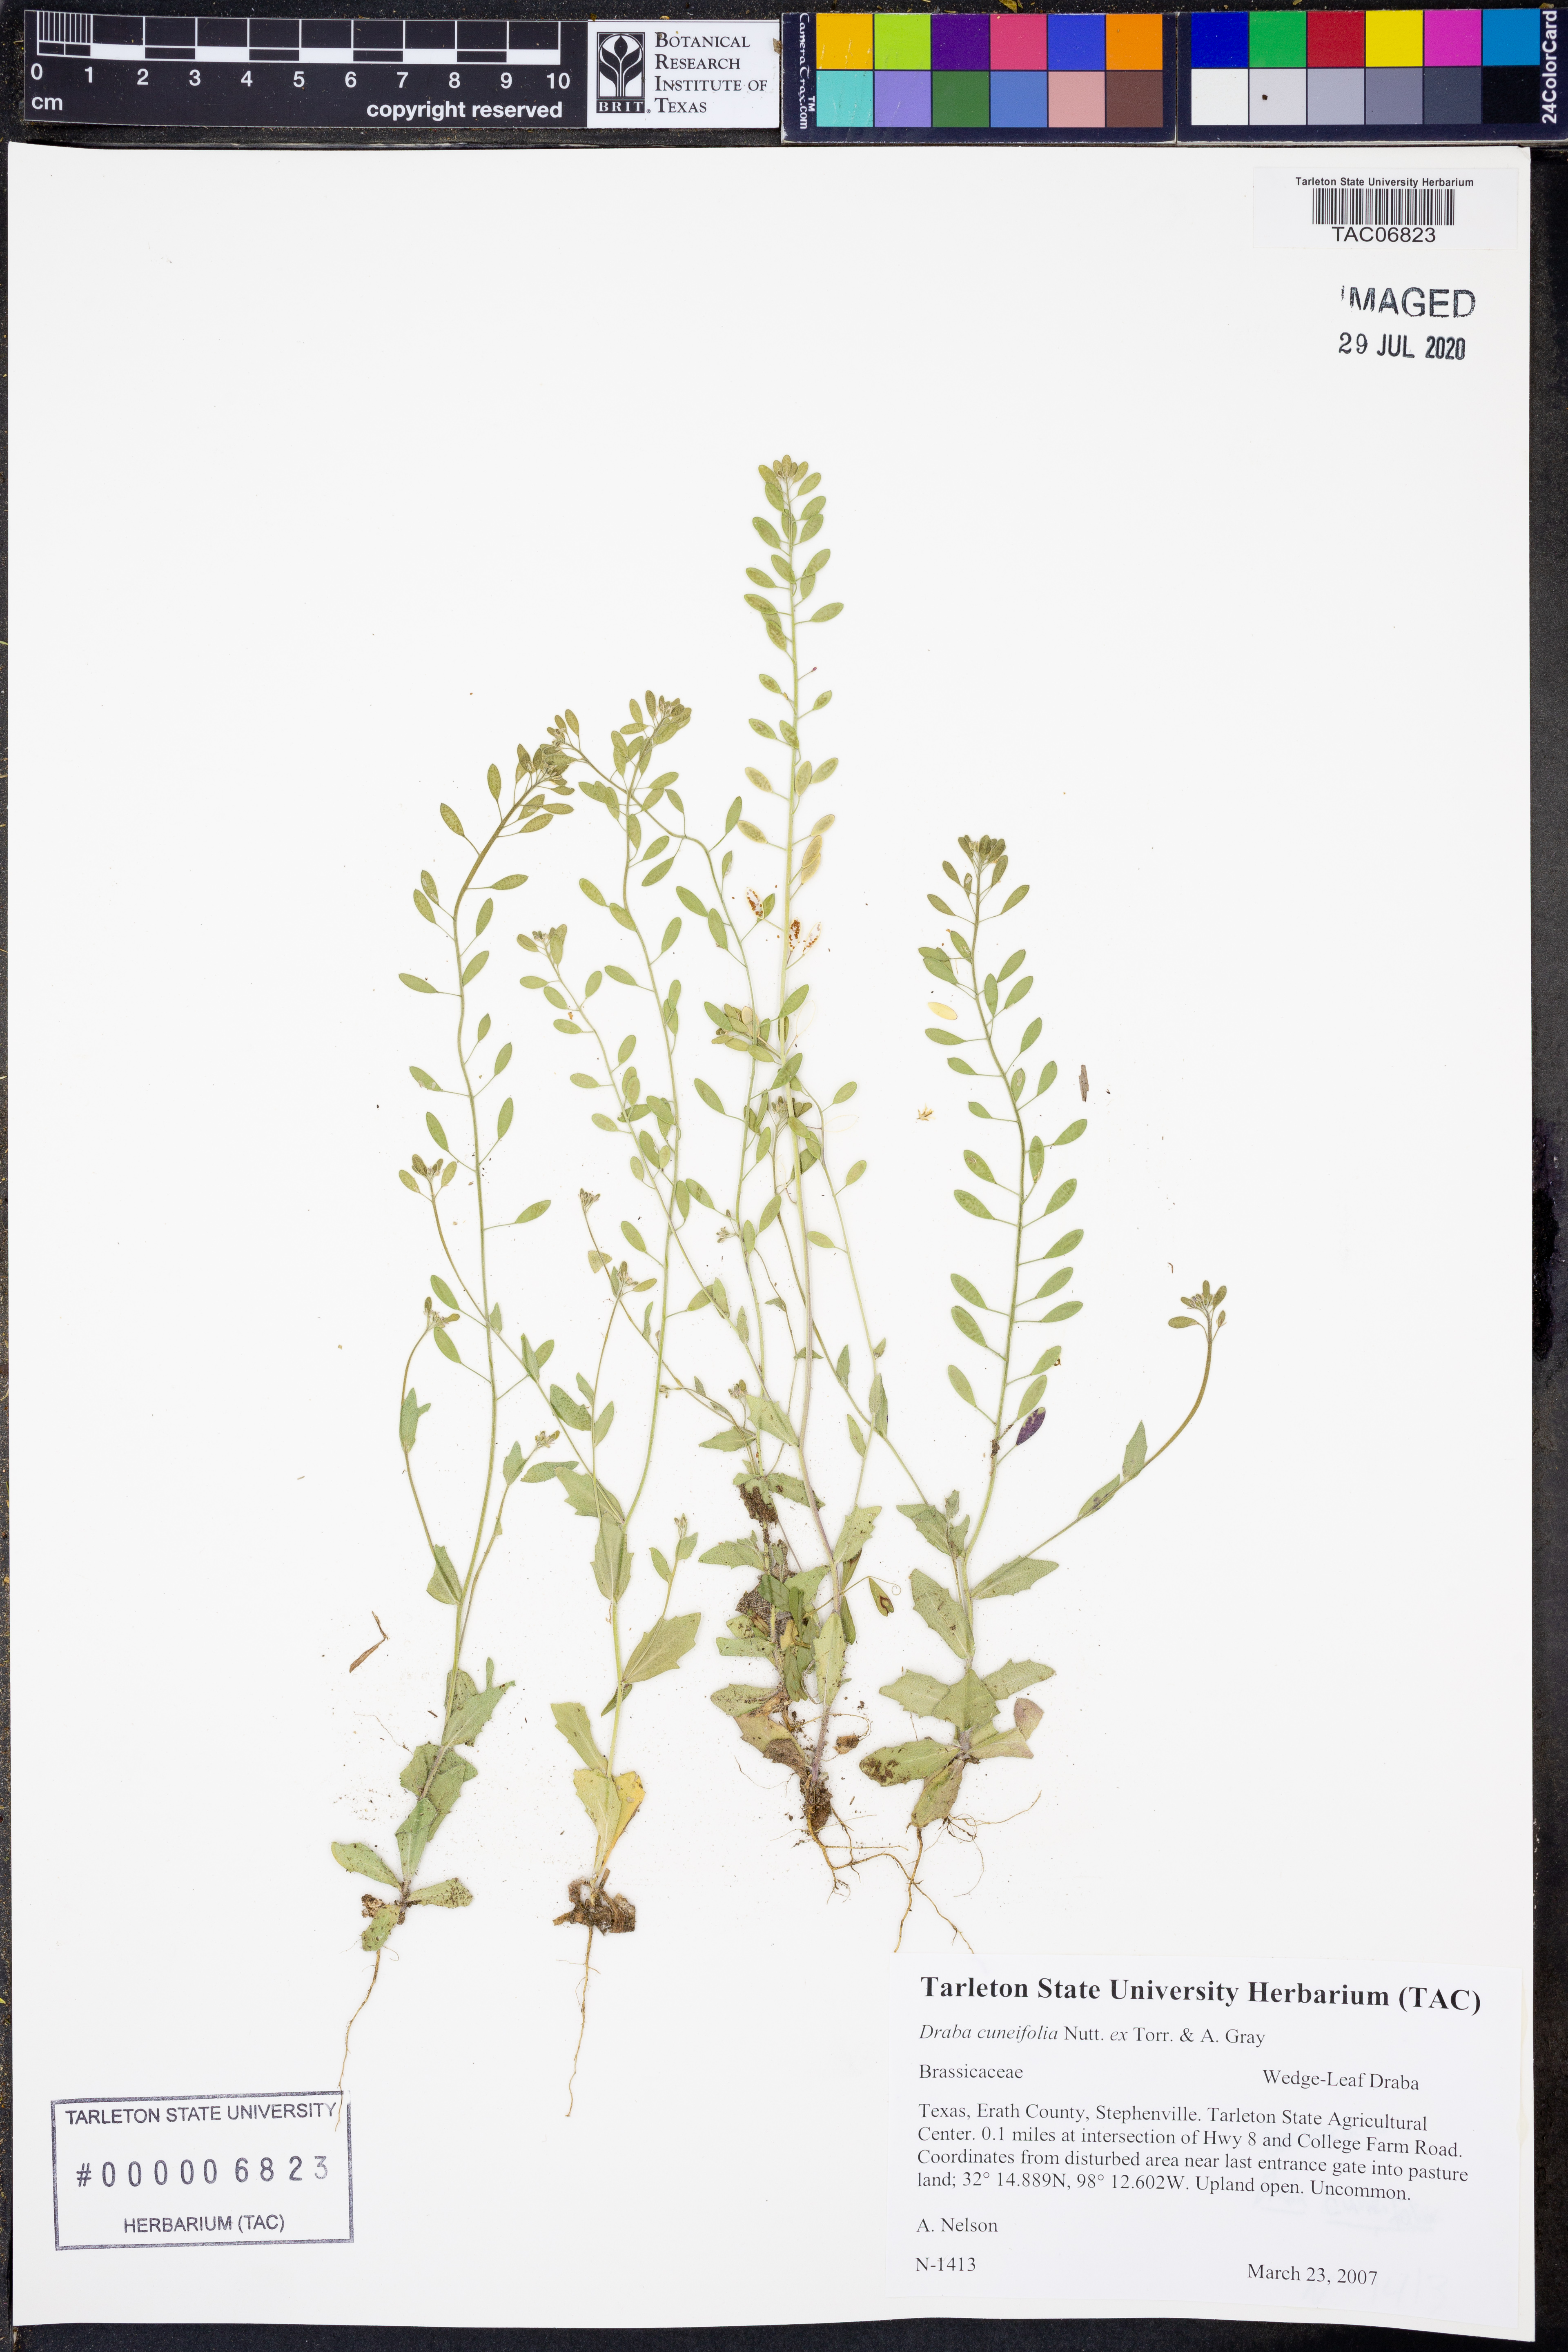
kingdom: Plantae
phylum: Tracheophyta
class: Magnoliopsida
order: Brassicales
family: Brassicaceae
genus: Tomostima
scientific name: Tomostima cuneifolia
